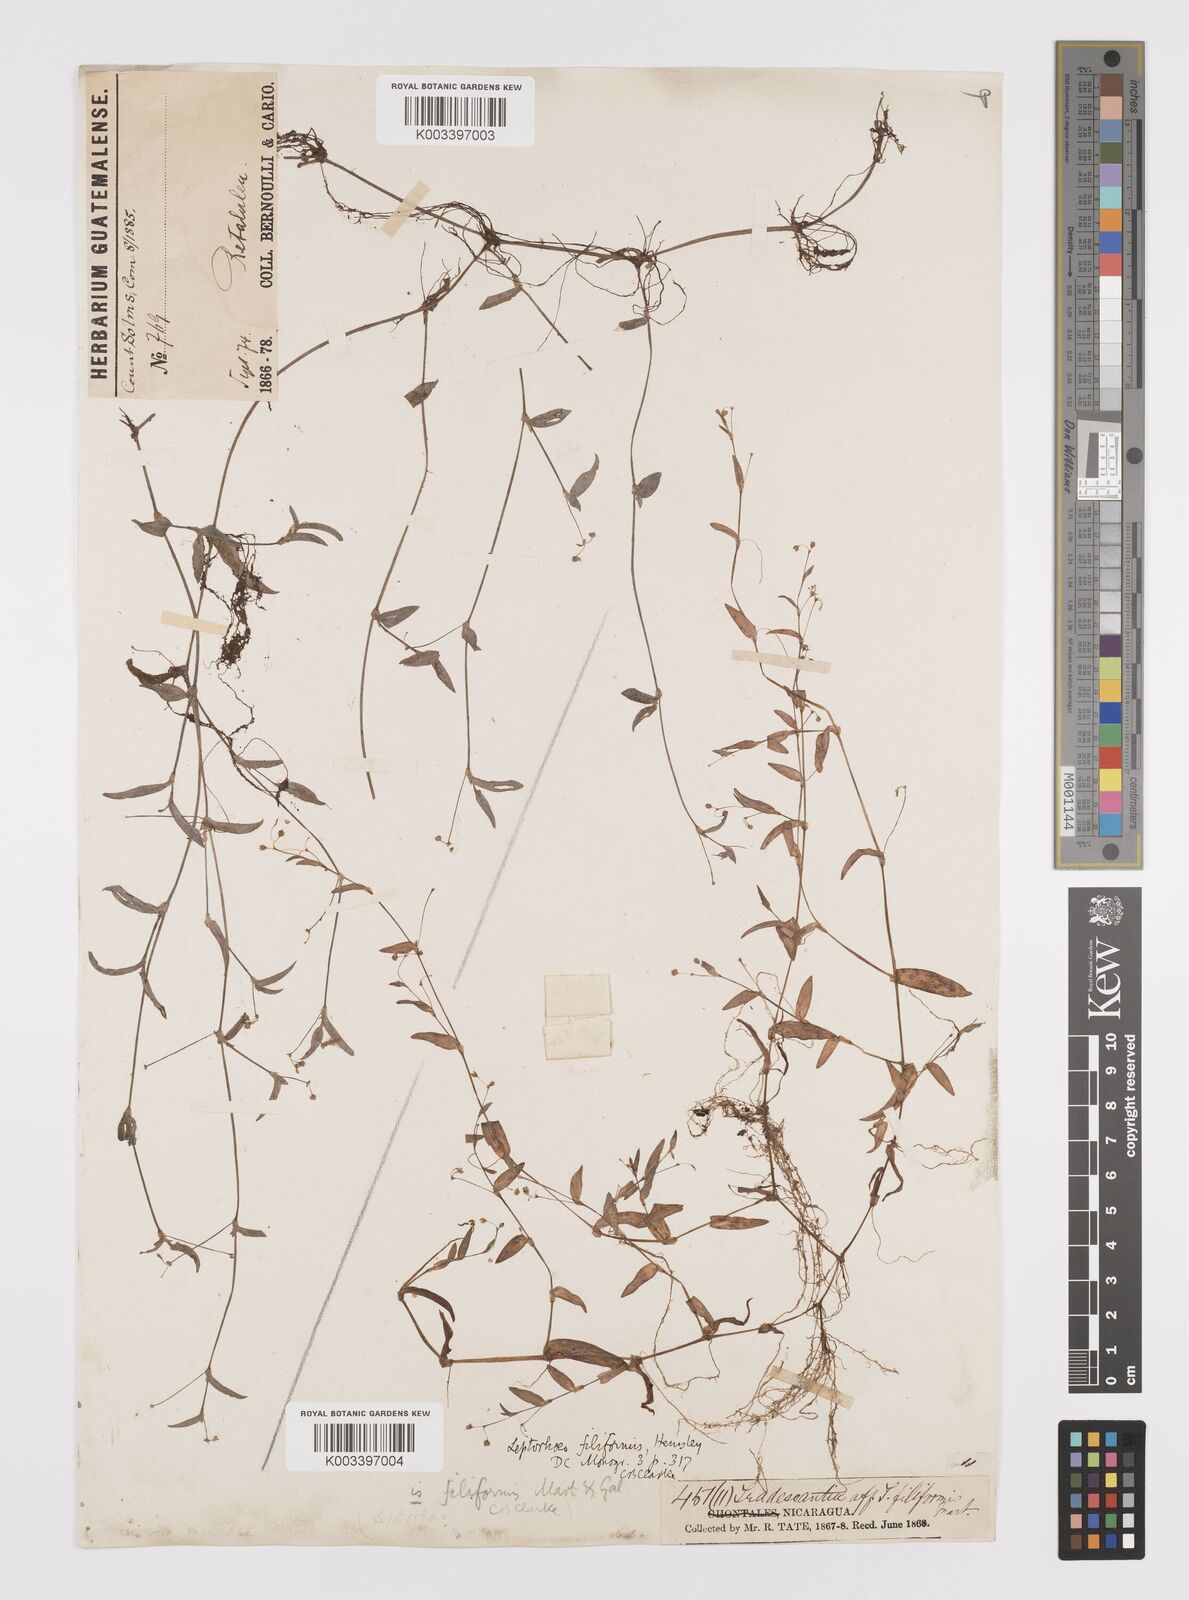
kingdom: Plantae
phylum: Tracheophyta
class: Liliopsida
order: Commelinales
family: Commelinaceae
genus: Callisia
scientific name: Callisia
